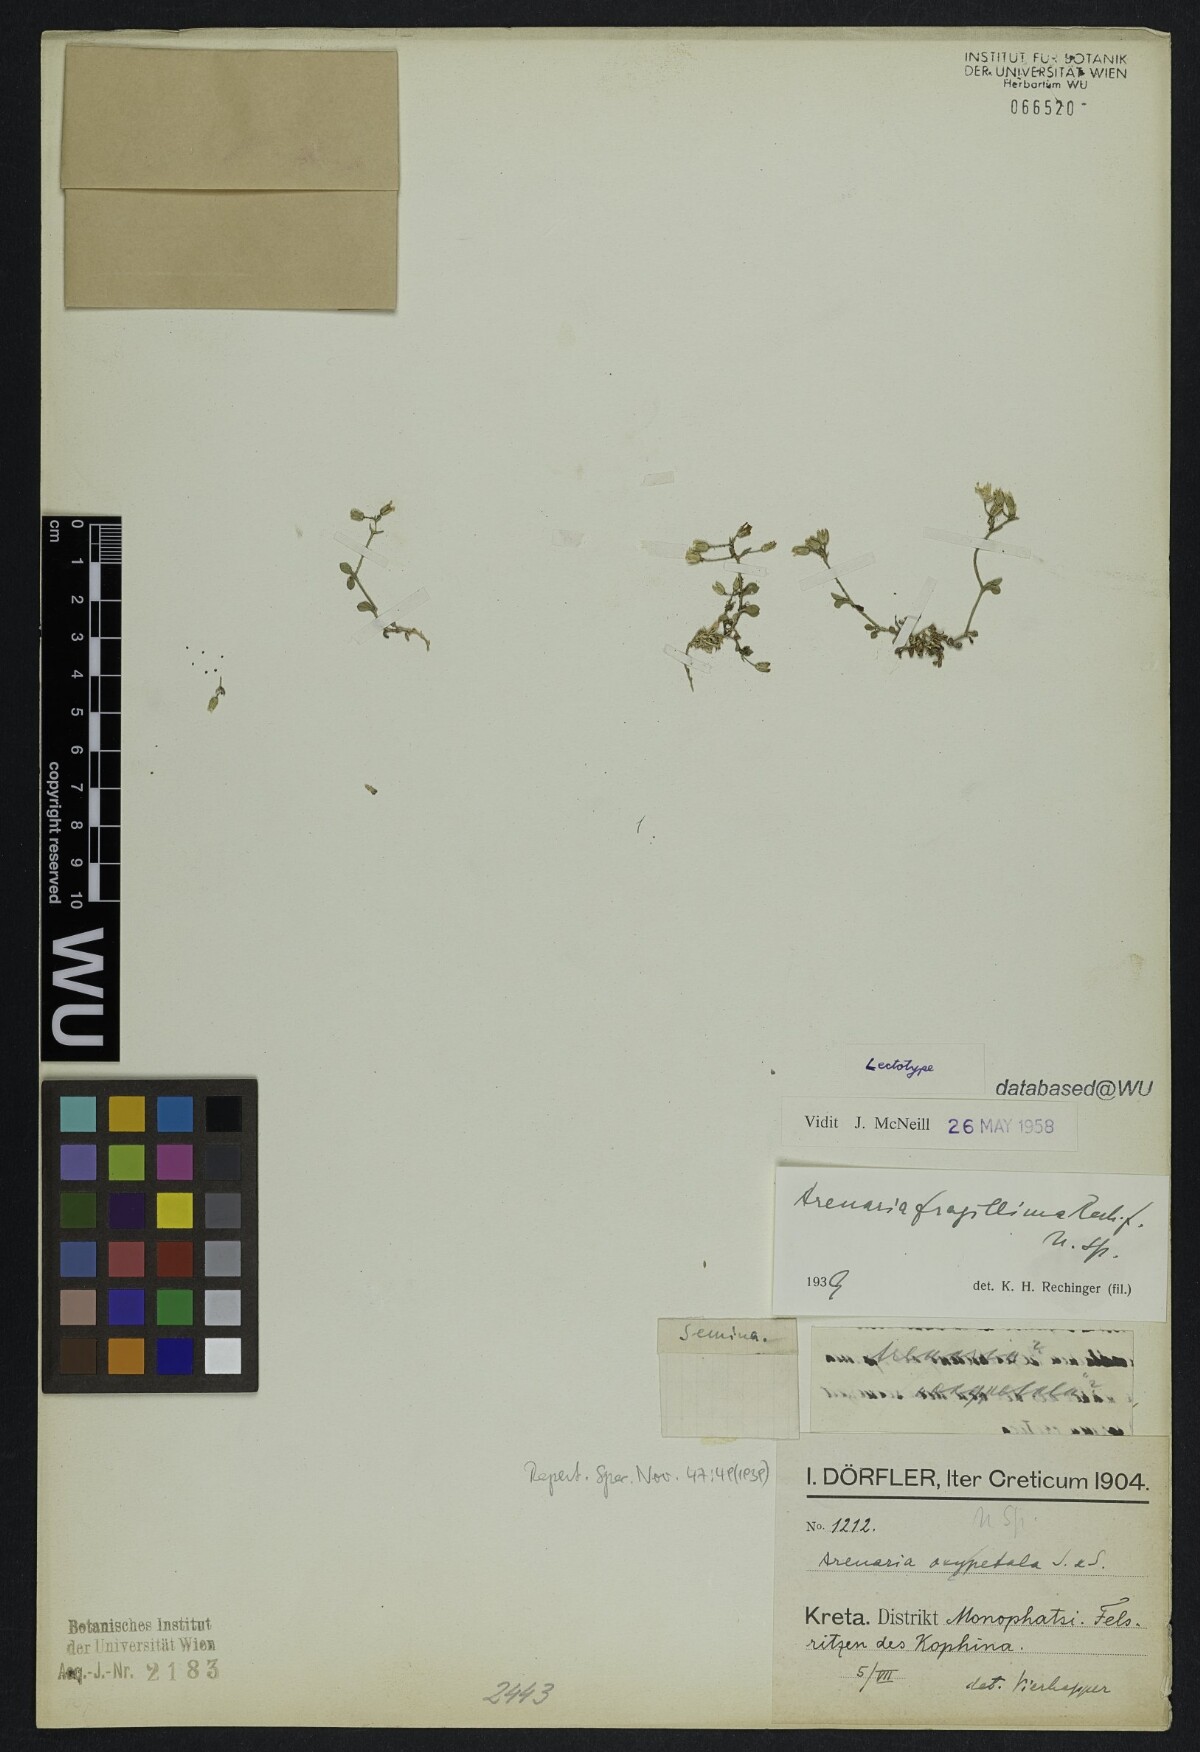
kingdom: Plantae
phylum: Tracheophyta
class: Magnoliopsida
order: Caryophyllales
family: Caryophyllaceae
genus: Arenaria
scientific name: Arenaria fragillima
